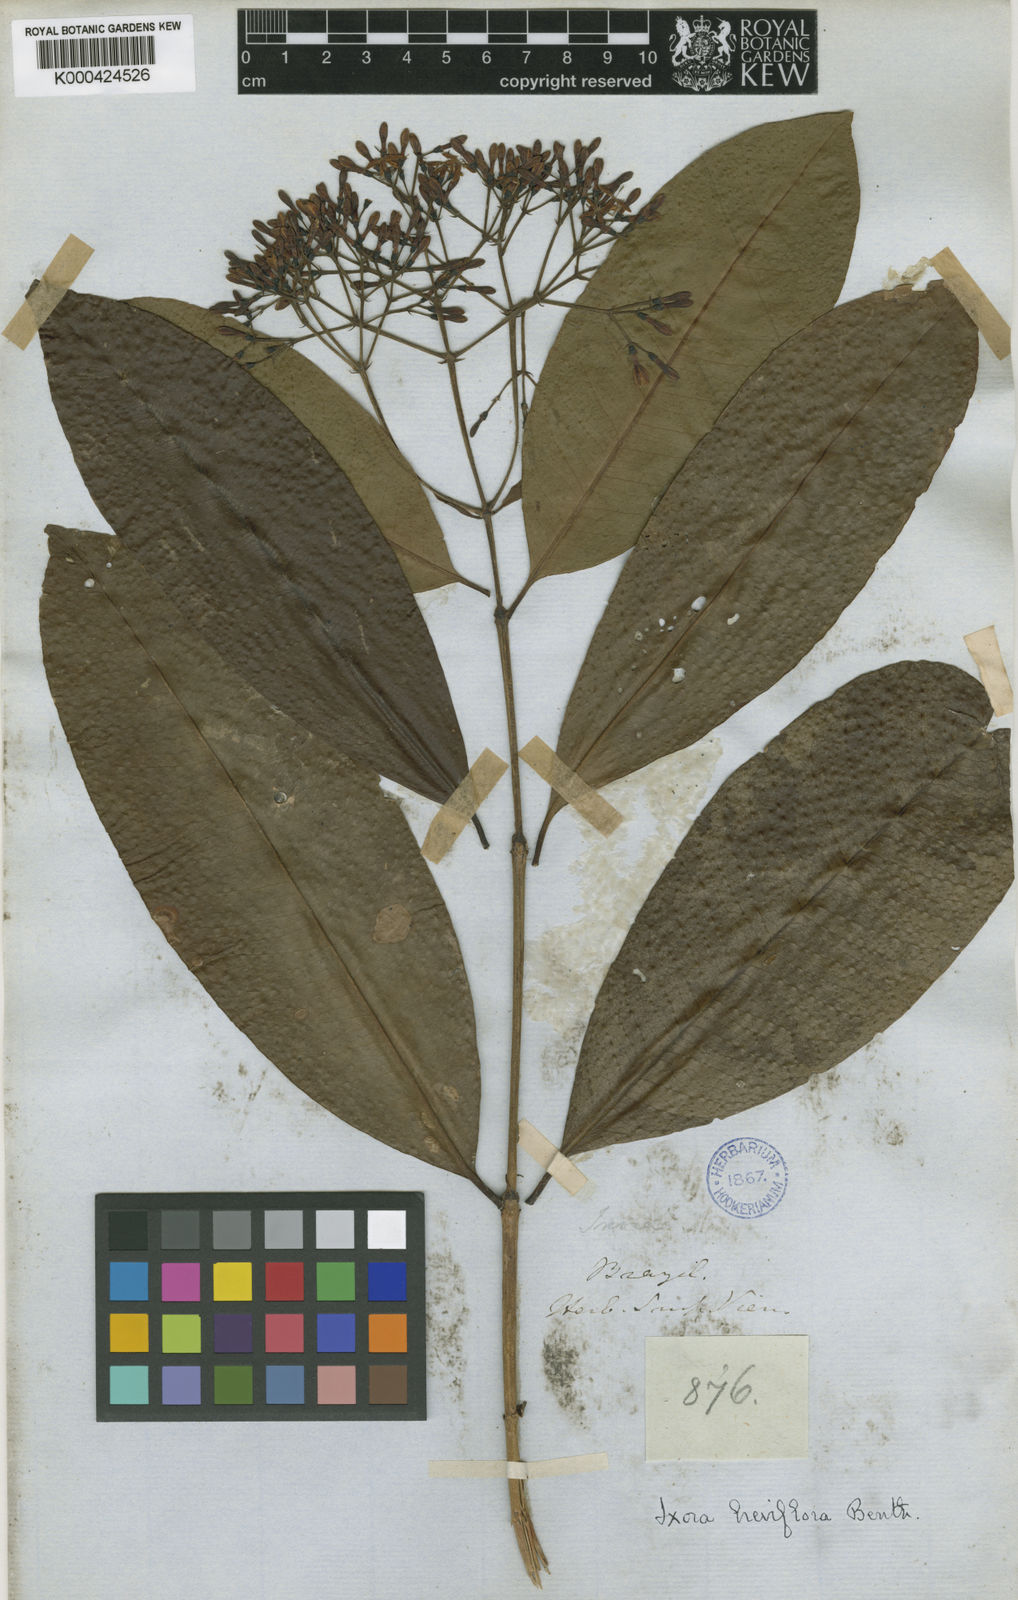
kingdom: Plantae
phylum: Tracheophyta
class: Magnoliopsida
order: Gentianales
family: Rubiaceae
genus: Ixora
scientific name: Ixora brevifolia
